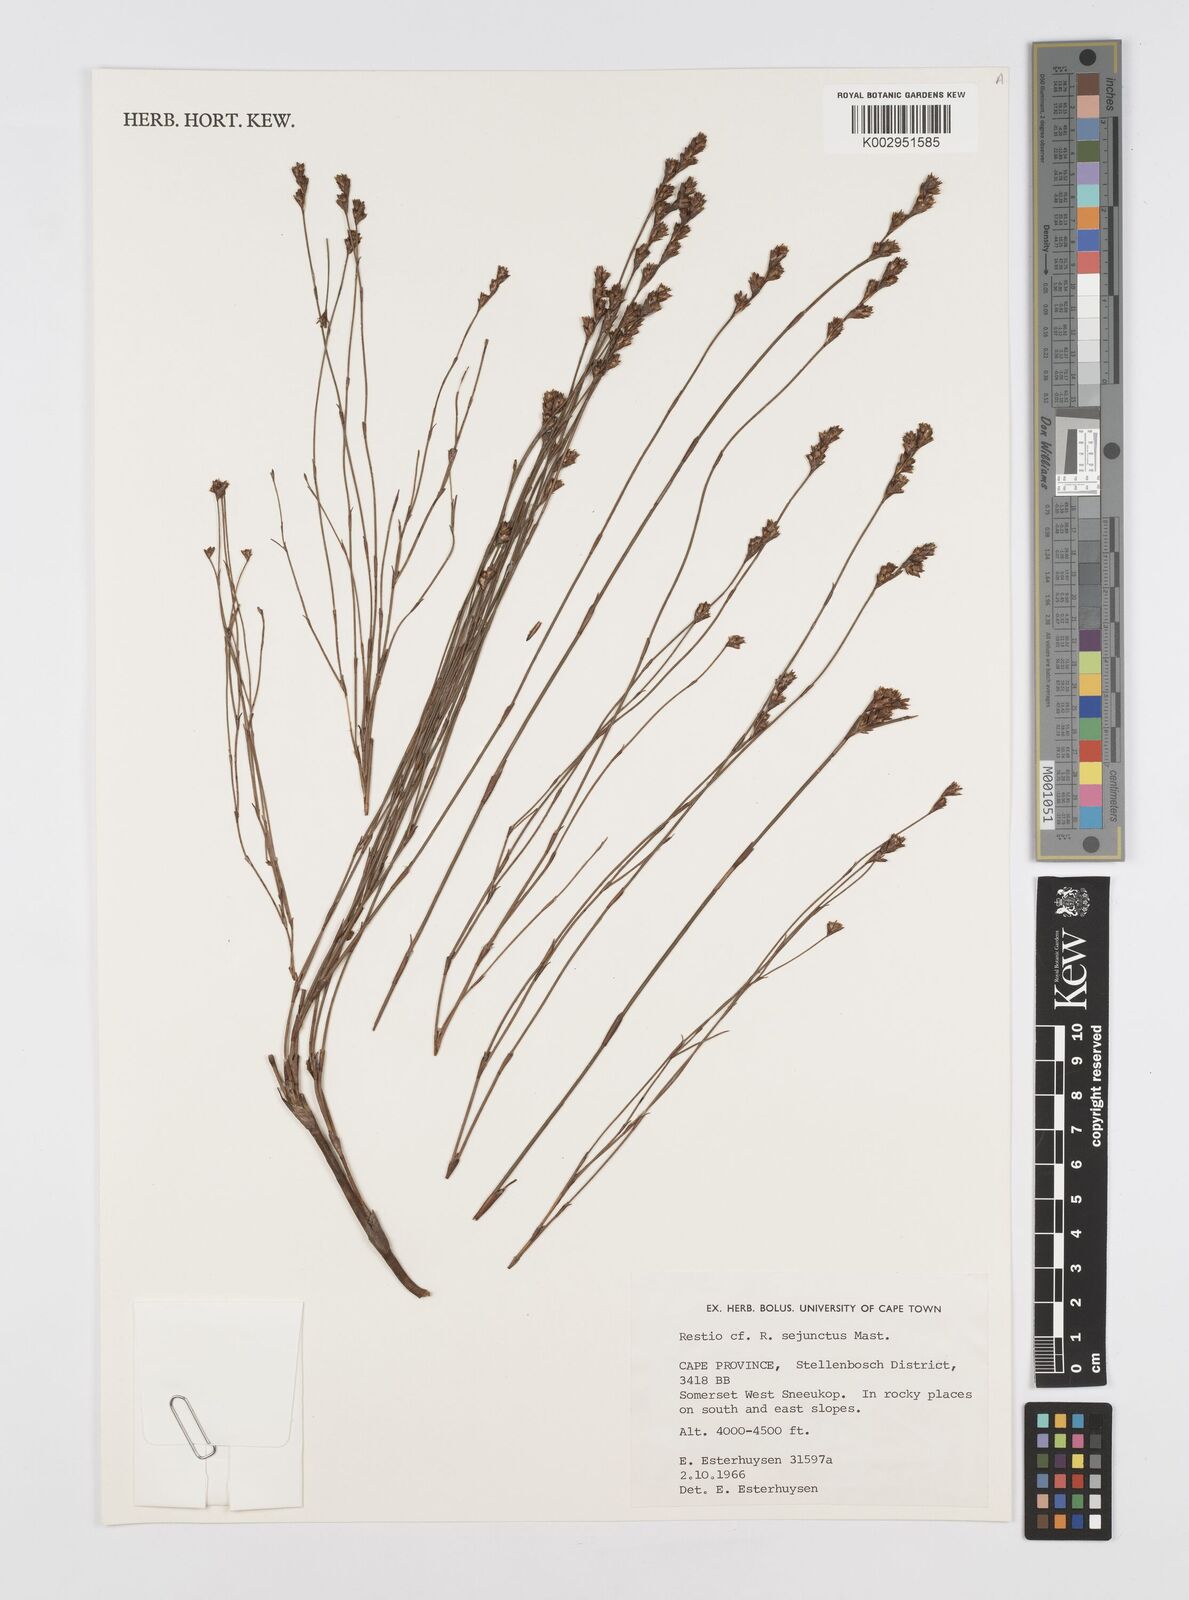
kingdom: Plantae
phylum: Tracheophyta
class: Liliopsida
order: Poales
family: Restionaceae
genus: Restio
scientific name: Restio sejunctus
